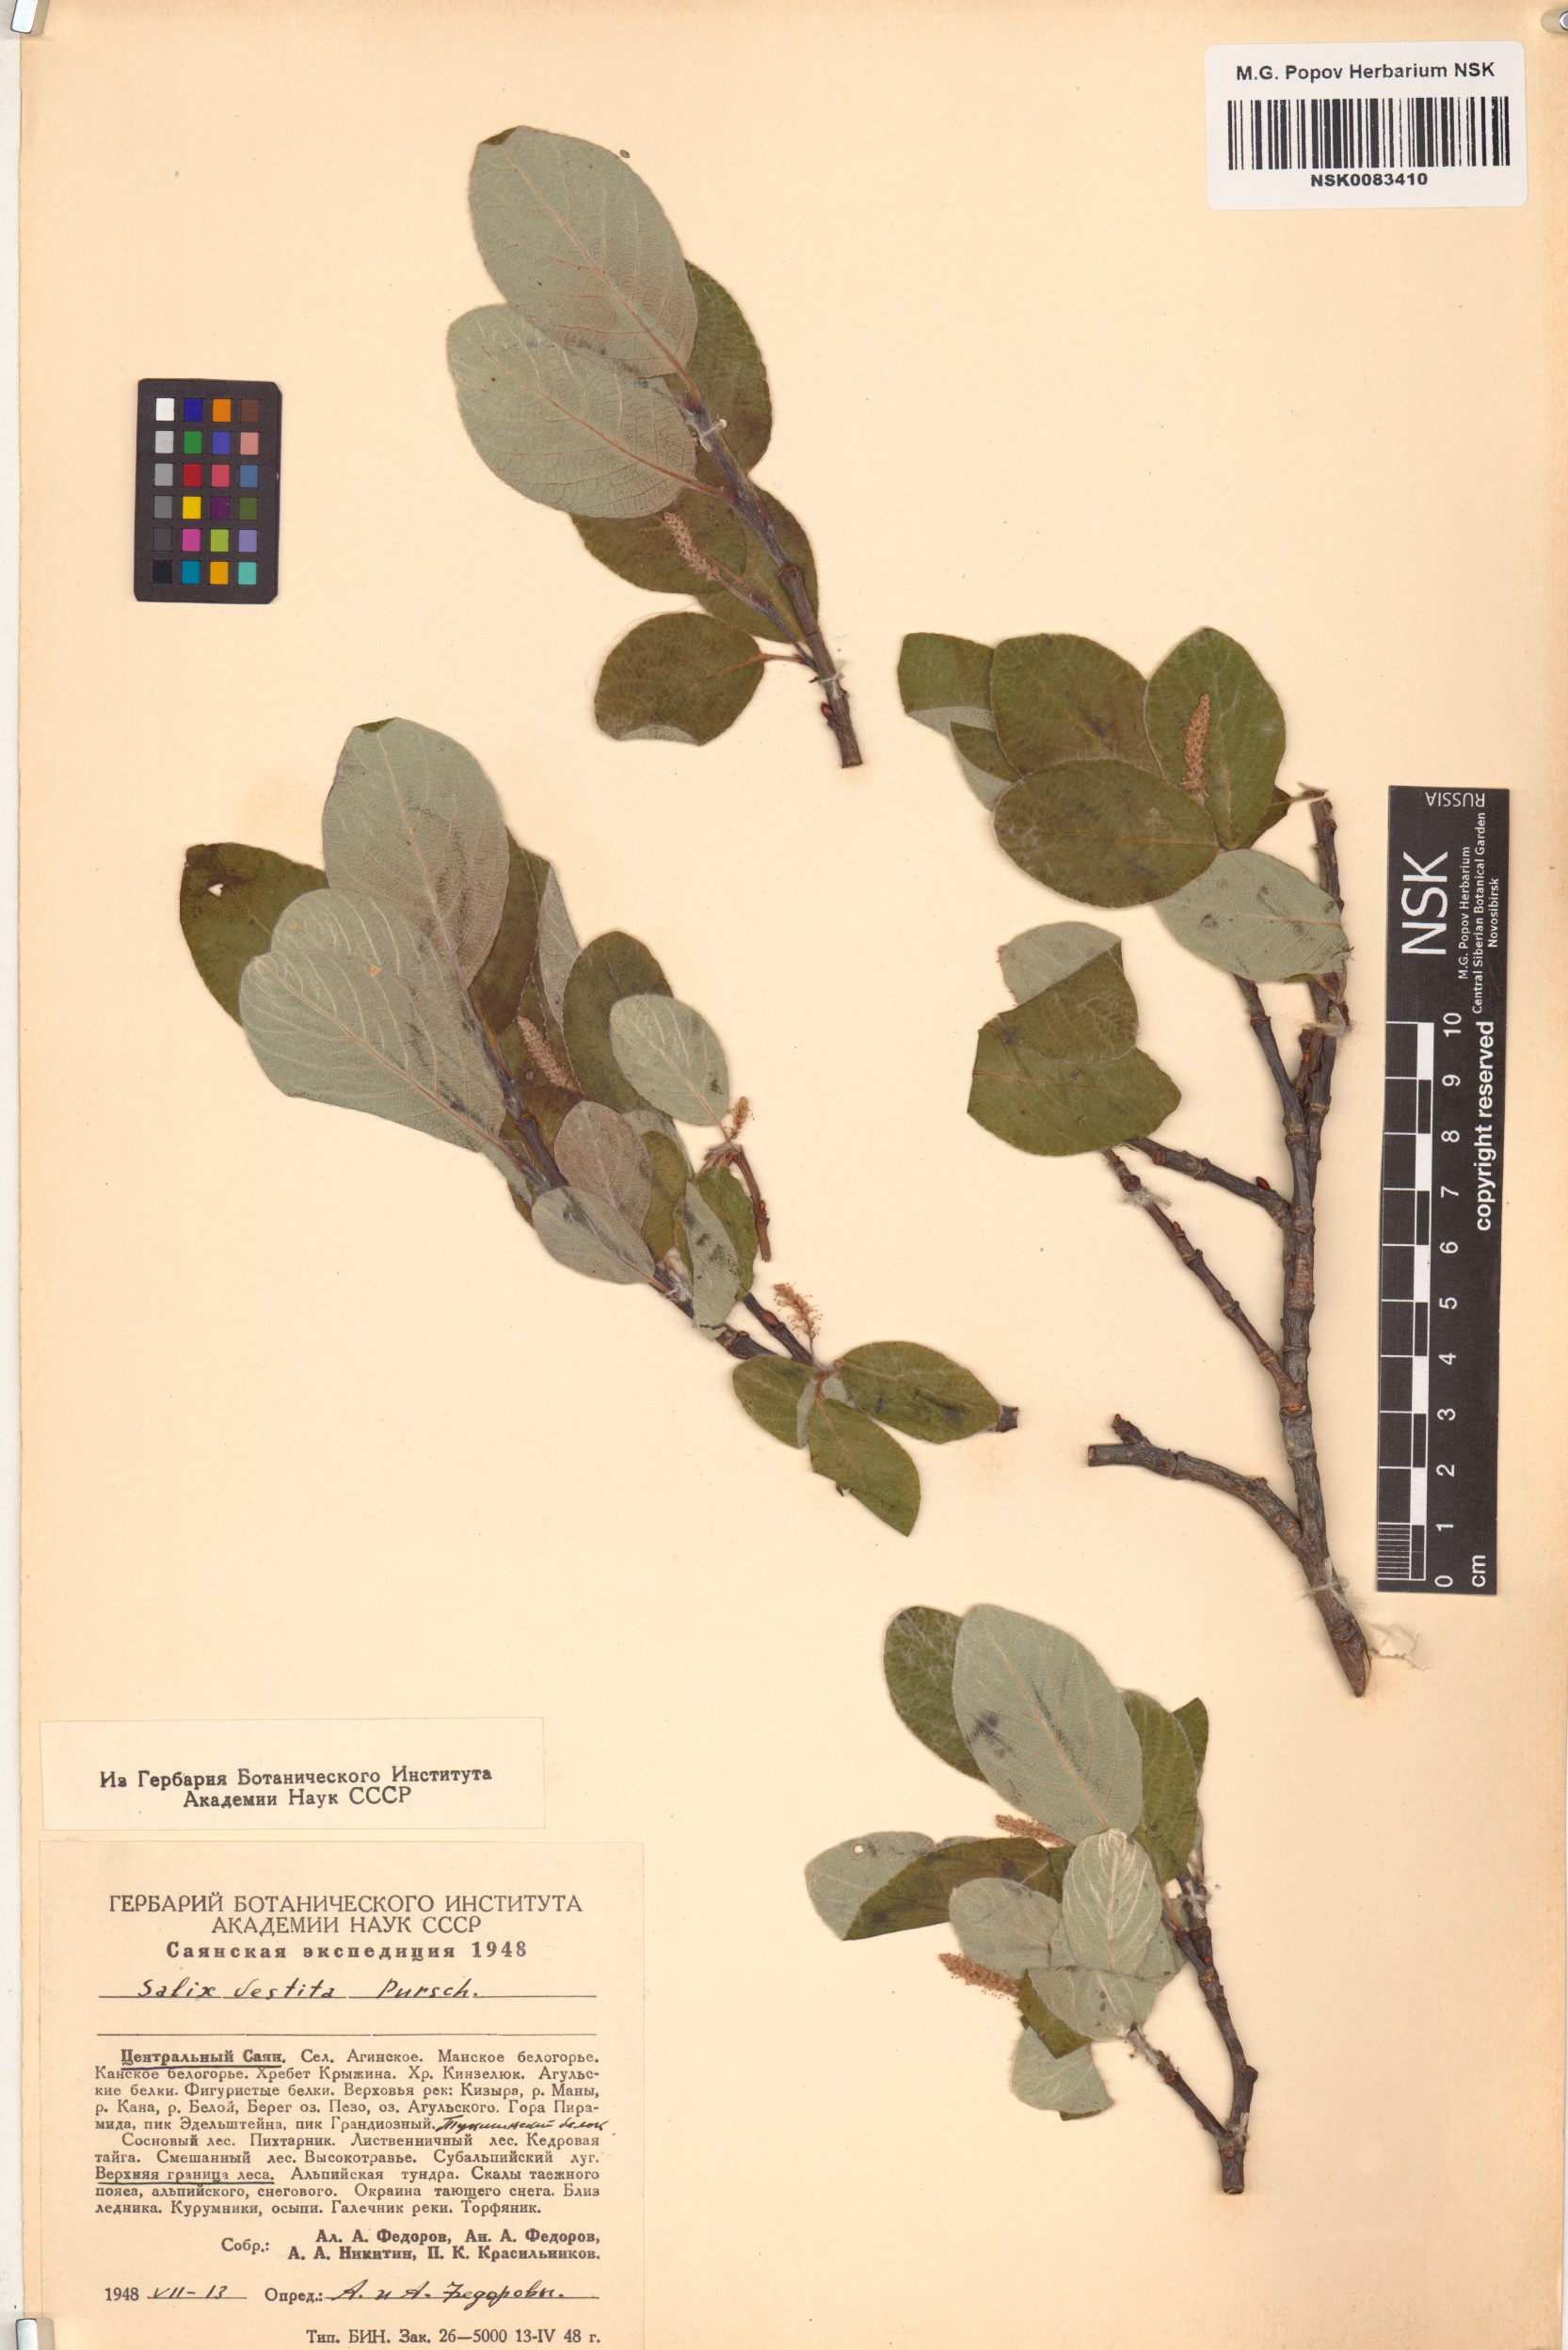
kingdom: Plantae
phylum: Tracheophyta
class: Magnoliopsida
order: Malpighiales
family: Salicaceae
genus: Salix
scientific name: Salix vestita
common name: Hairy willow
